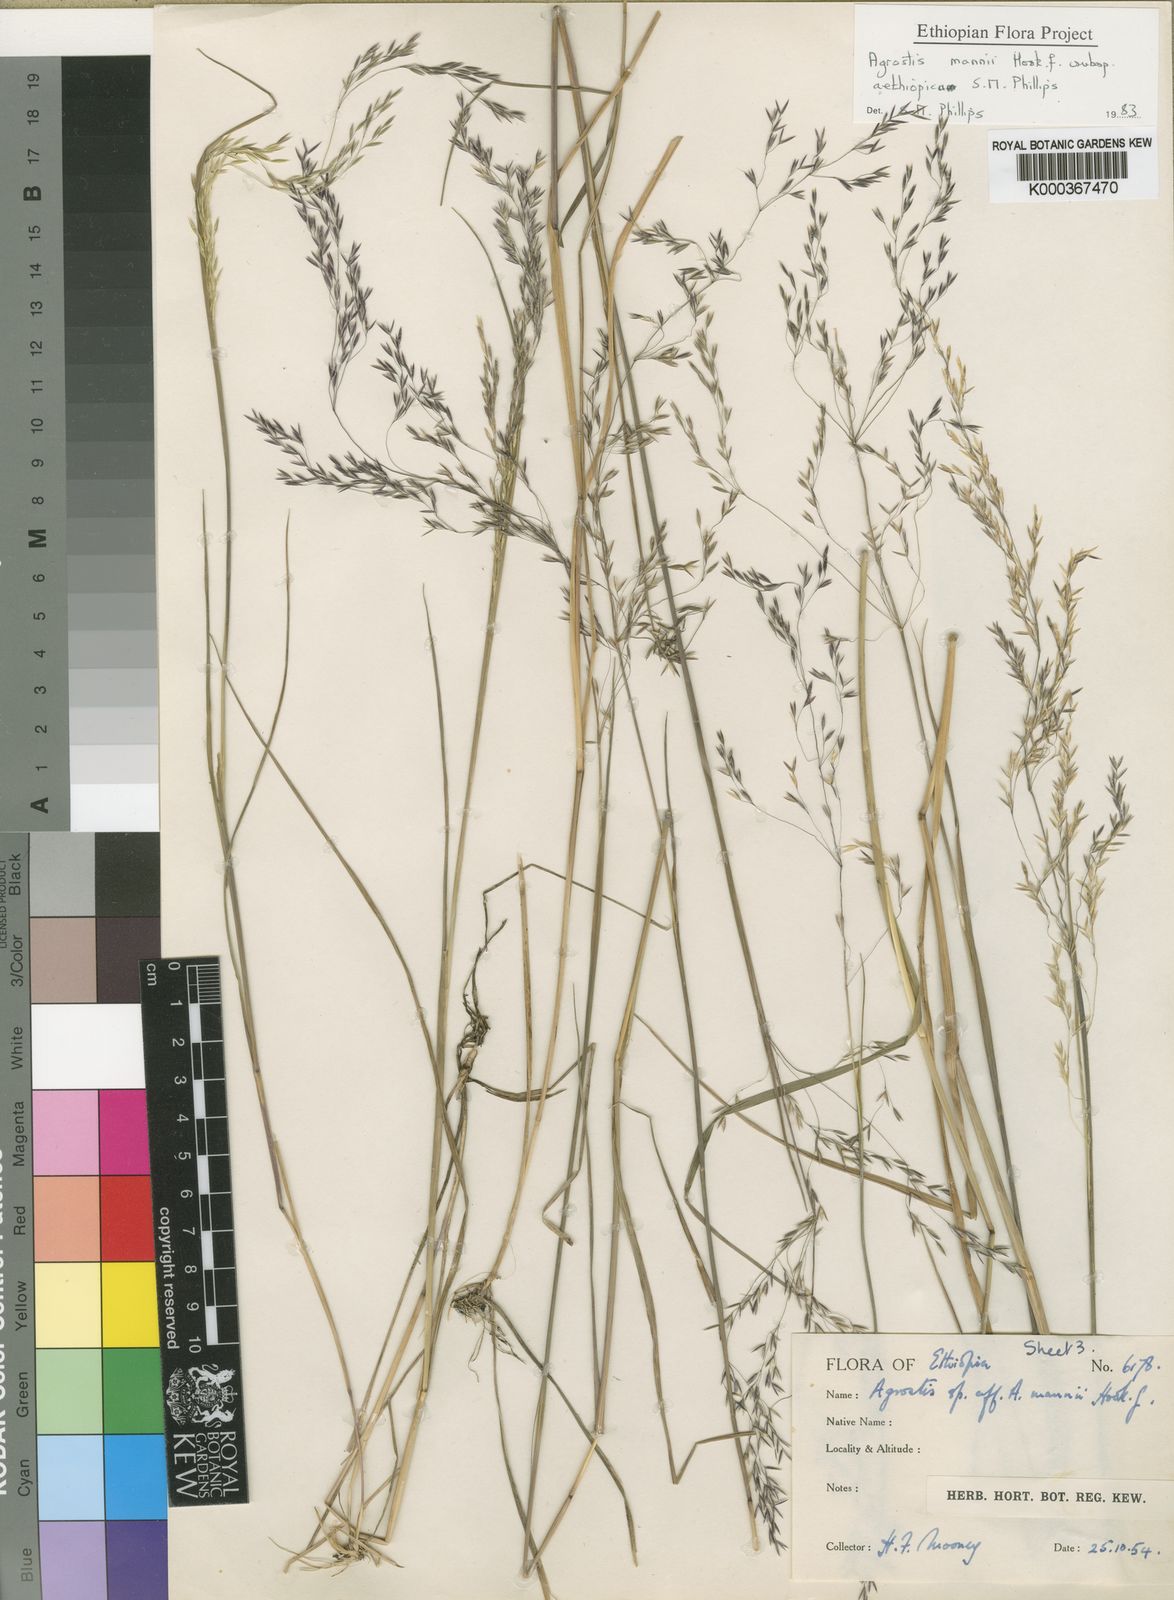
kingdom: Plantae
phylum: Tracheophyta
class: Liliopsida
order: Poales
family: Poaceae
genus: Agrostis
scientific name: Agrostis mannii
